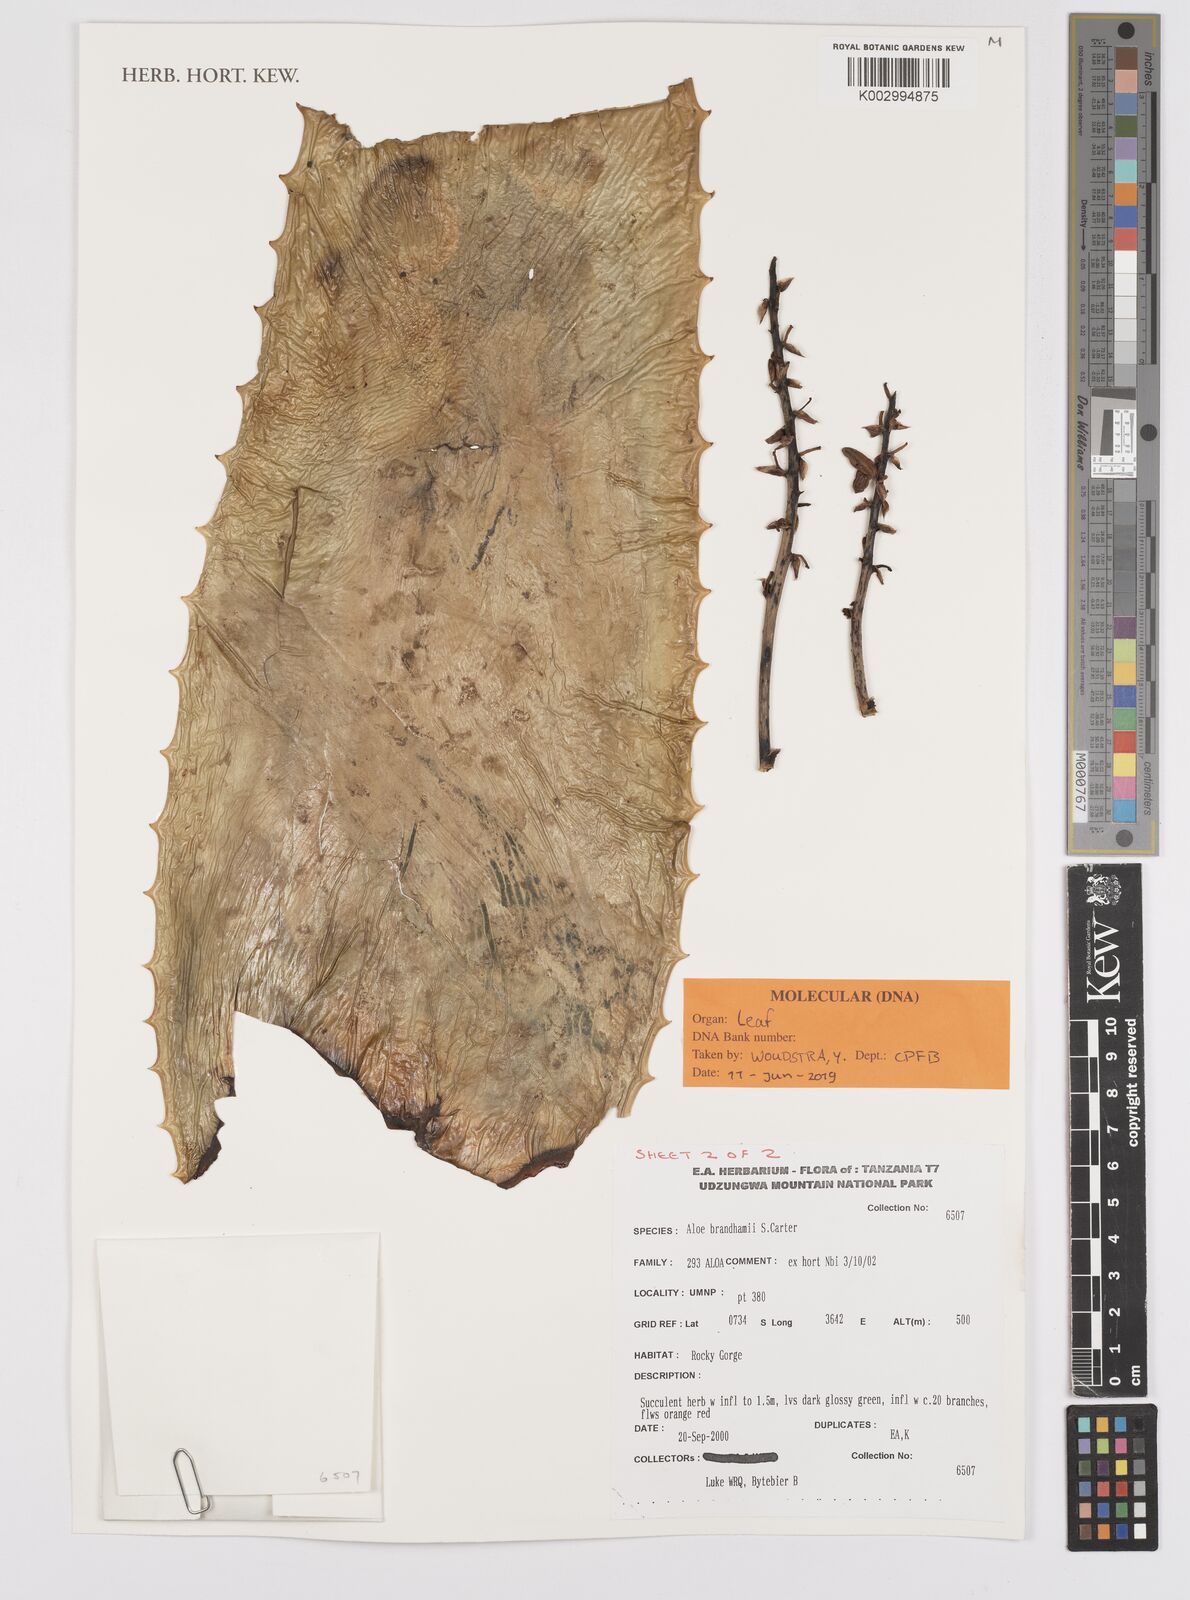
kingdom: Plantae
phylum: Tracheophyta
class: Liliopsida
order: Asparagales
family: Asphodelaceae
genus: Aloe
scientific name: Aloe brandhamii
